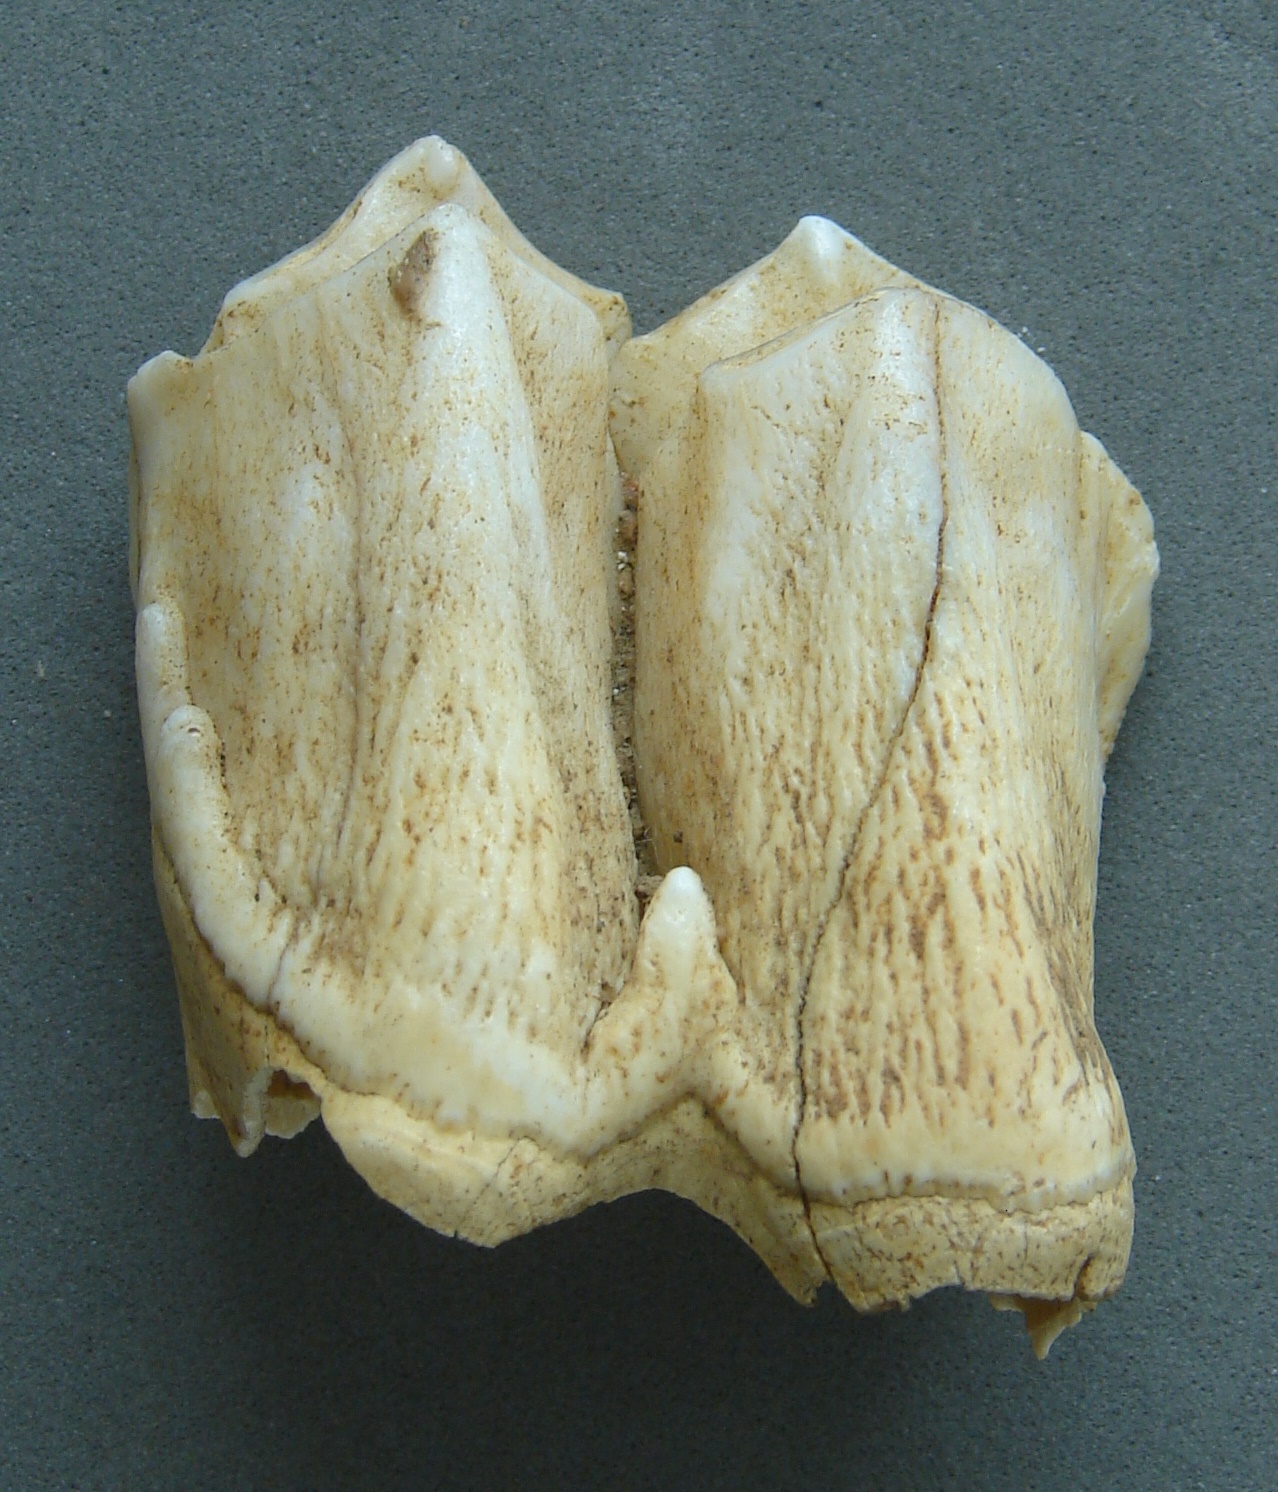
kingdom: Animalia
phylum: Chordata
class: Mammalia
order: Perissodactyla
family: Rhinocerotidae
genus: Rhinoceros
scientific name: Rhinoceros
